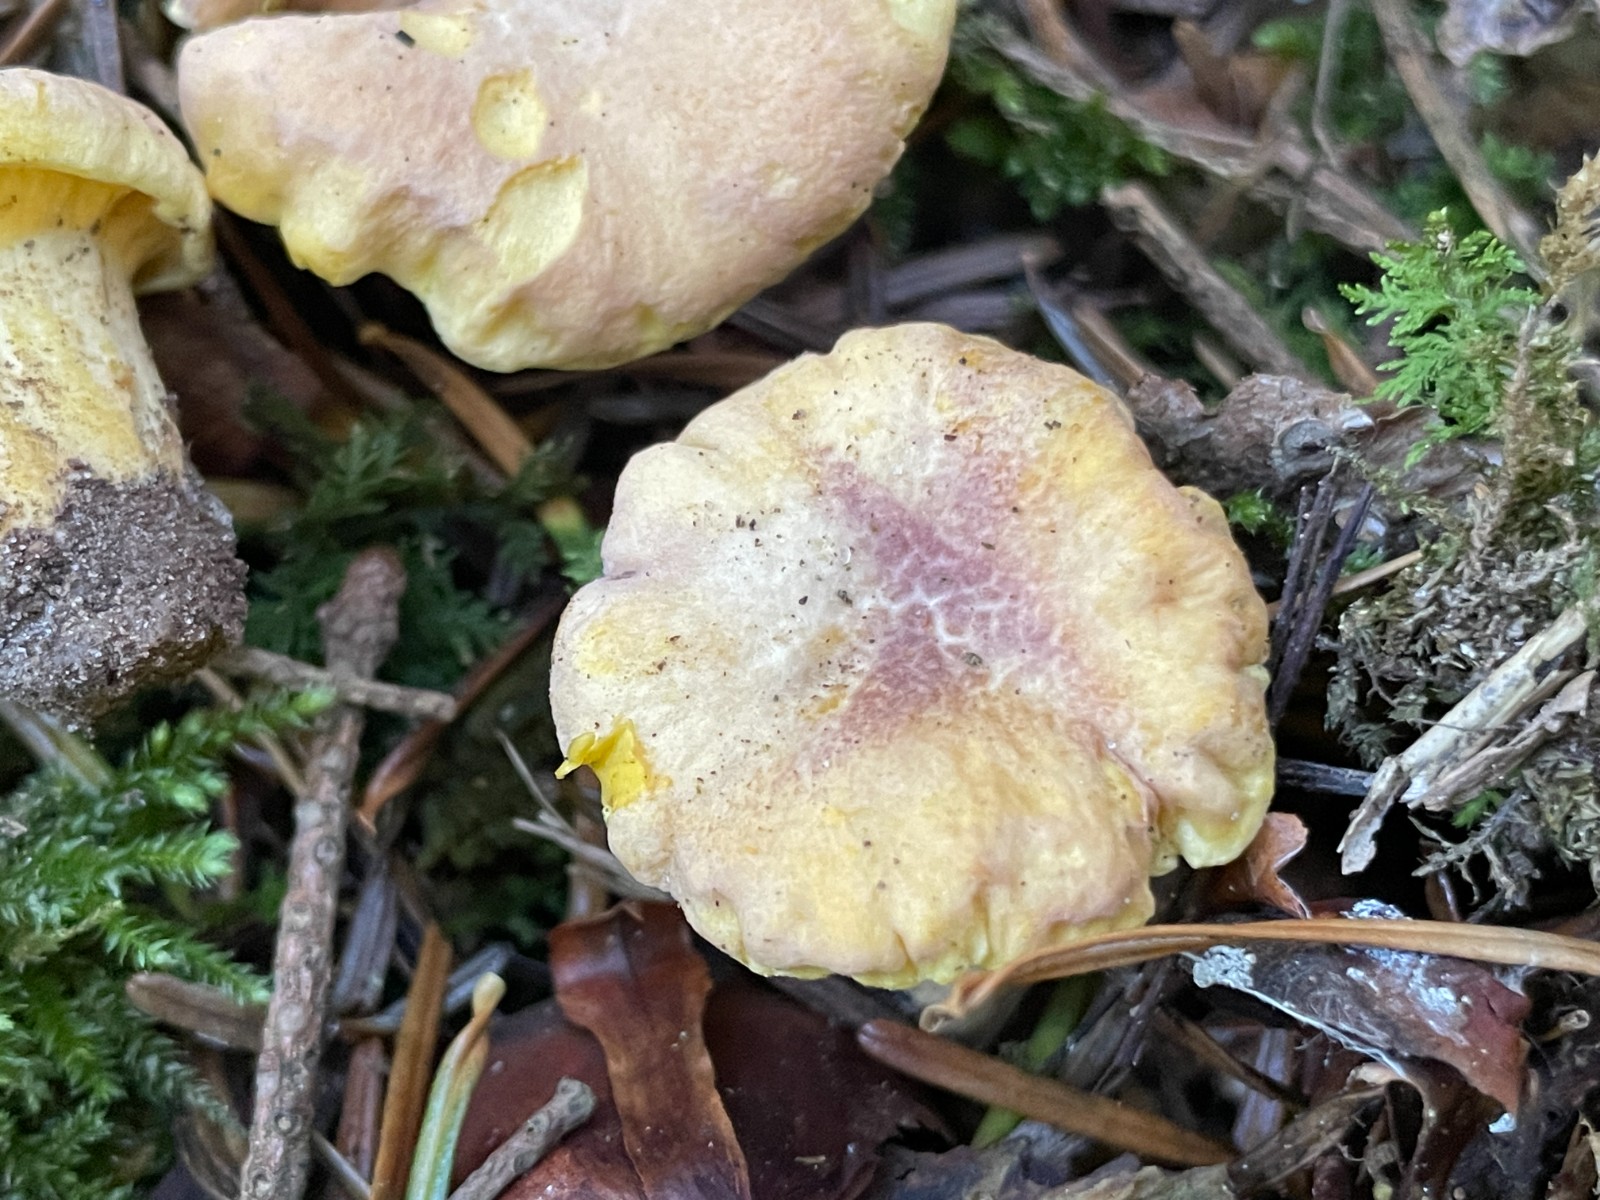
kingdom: Fungi
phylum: Basidiomycota
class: Agaricomycetes
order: Cantharellales
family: Hydnaceae
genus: Cantharellus
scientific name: Cantharellus amethysteus
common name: ametyst-kantarel
